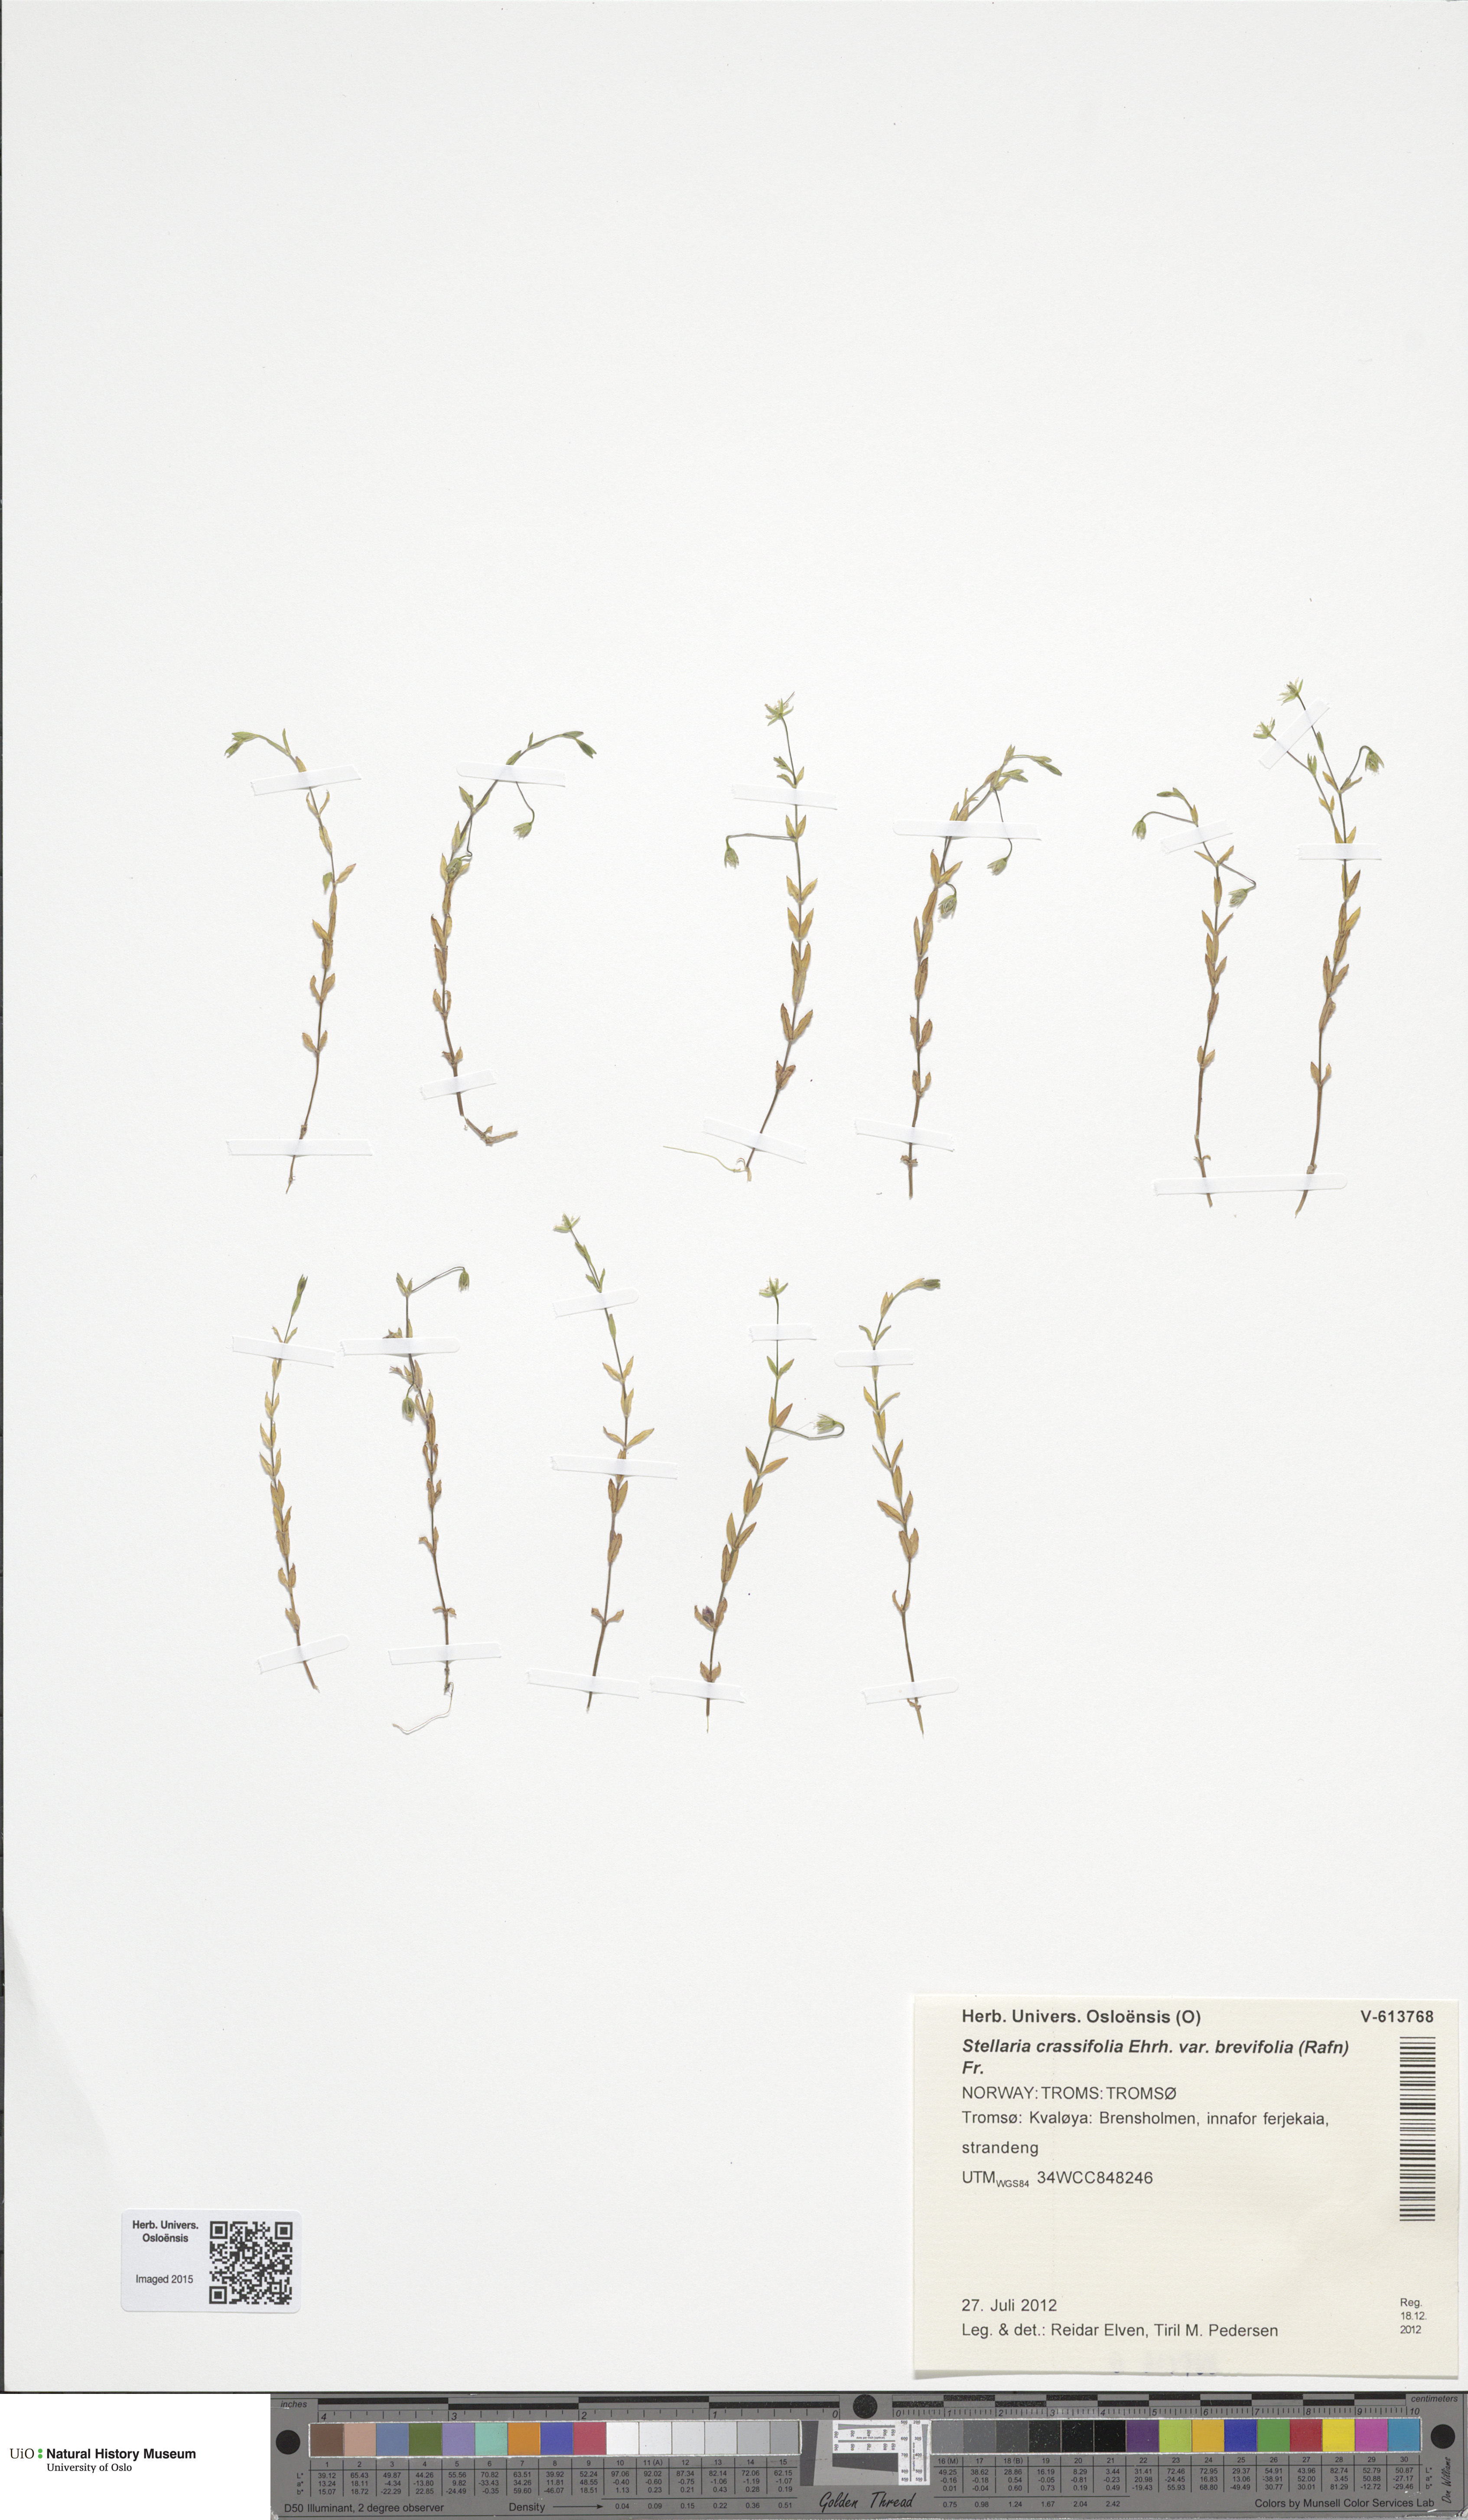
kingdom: Plantae
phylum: Tracheophyta
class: Magnoliopsida
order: Caryophyllales
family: Caryophyllaceae
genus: Stellaria
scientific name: Stellaria crassifolia
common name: Fleshy starwort
